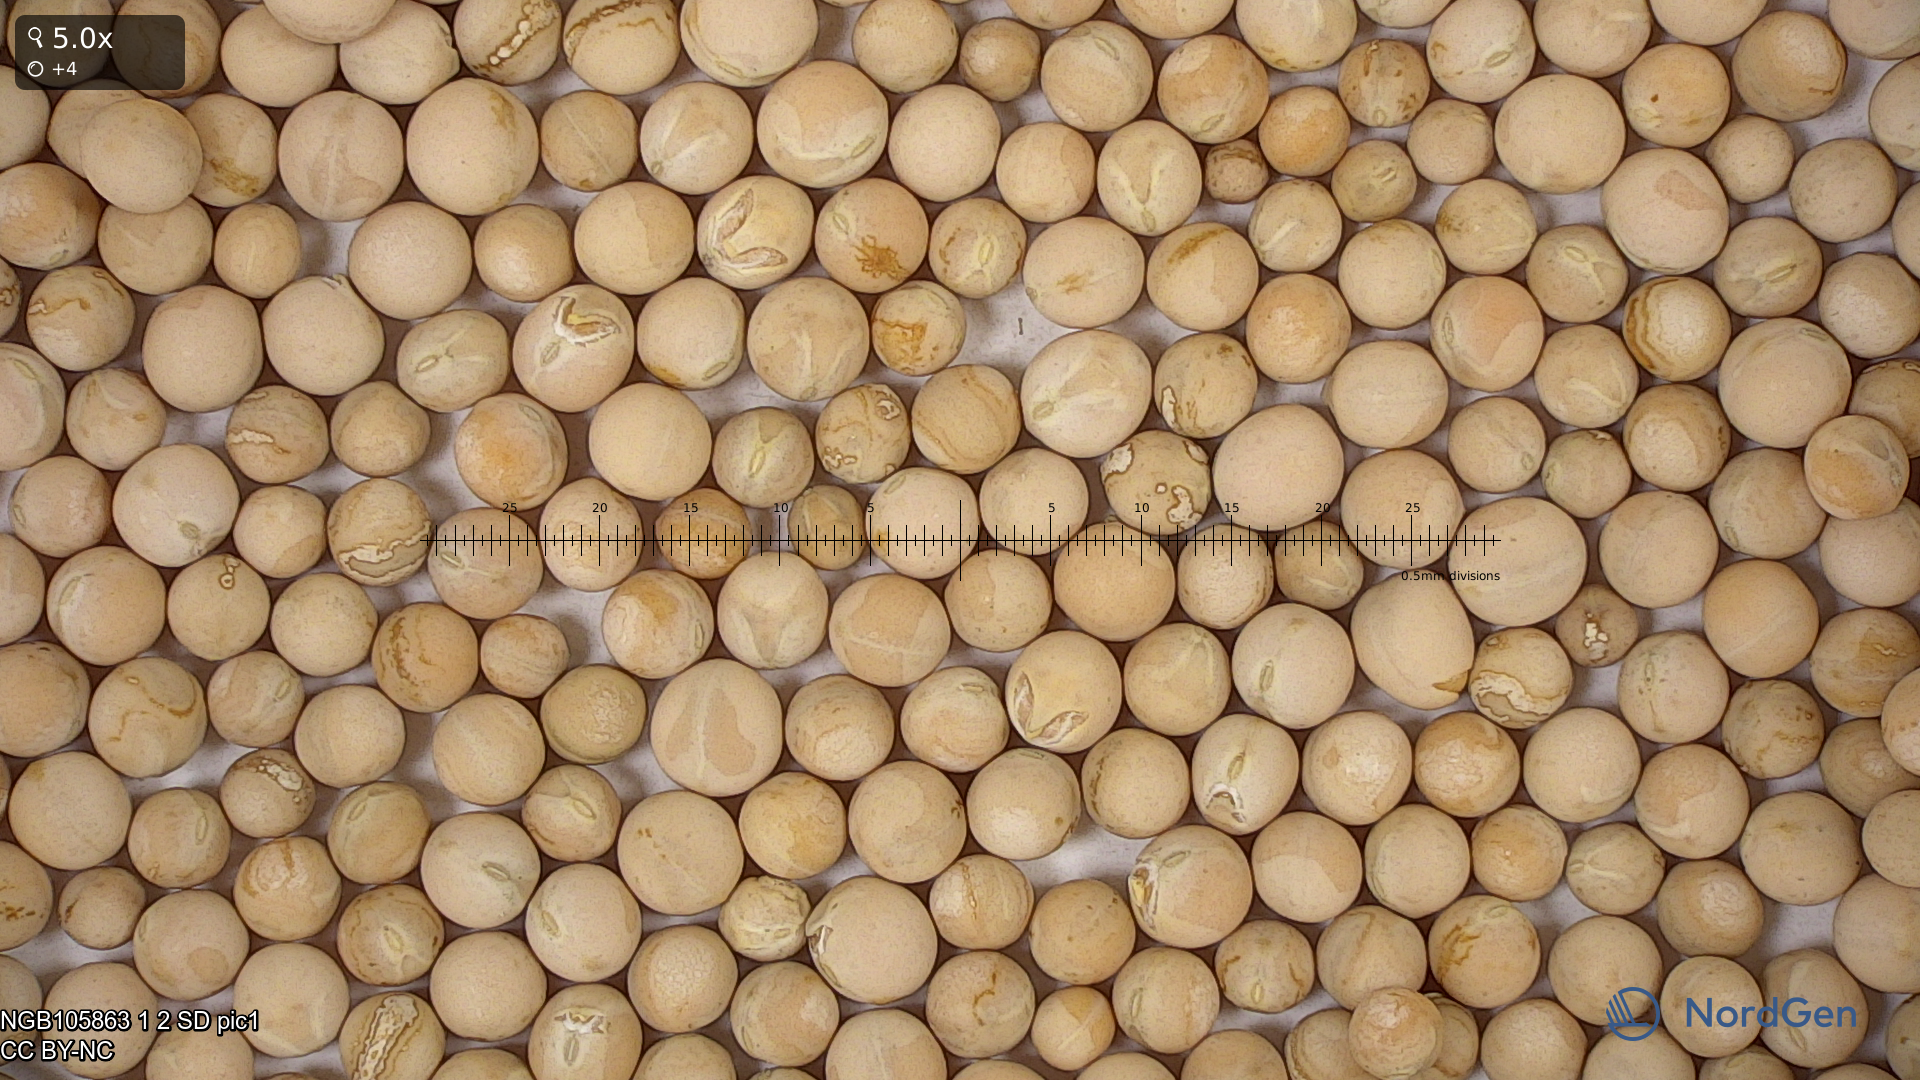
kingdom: Plantae
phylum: Tracheophyta
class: Magnoliopsida
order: Fabales
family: Fabaceae
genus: Lathyrus
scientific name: Lathyrus oleraceus
